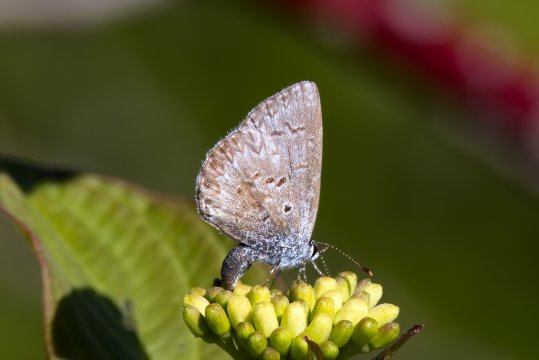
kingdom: Animalia
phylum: Arthropoda
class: Insecta
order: Lepidoptera
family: Lycaenidae
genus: Celastrina
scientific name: Celastrina lucia
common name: Northern Spring Azure
